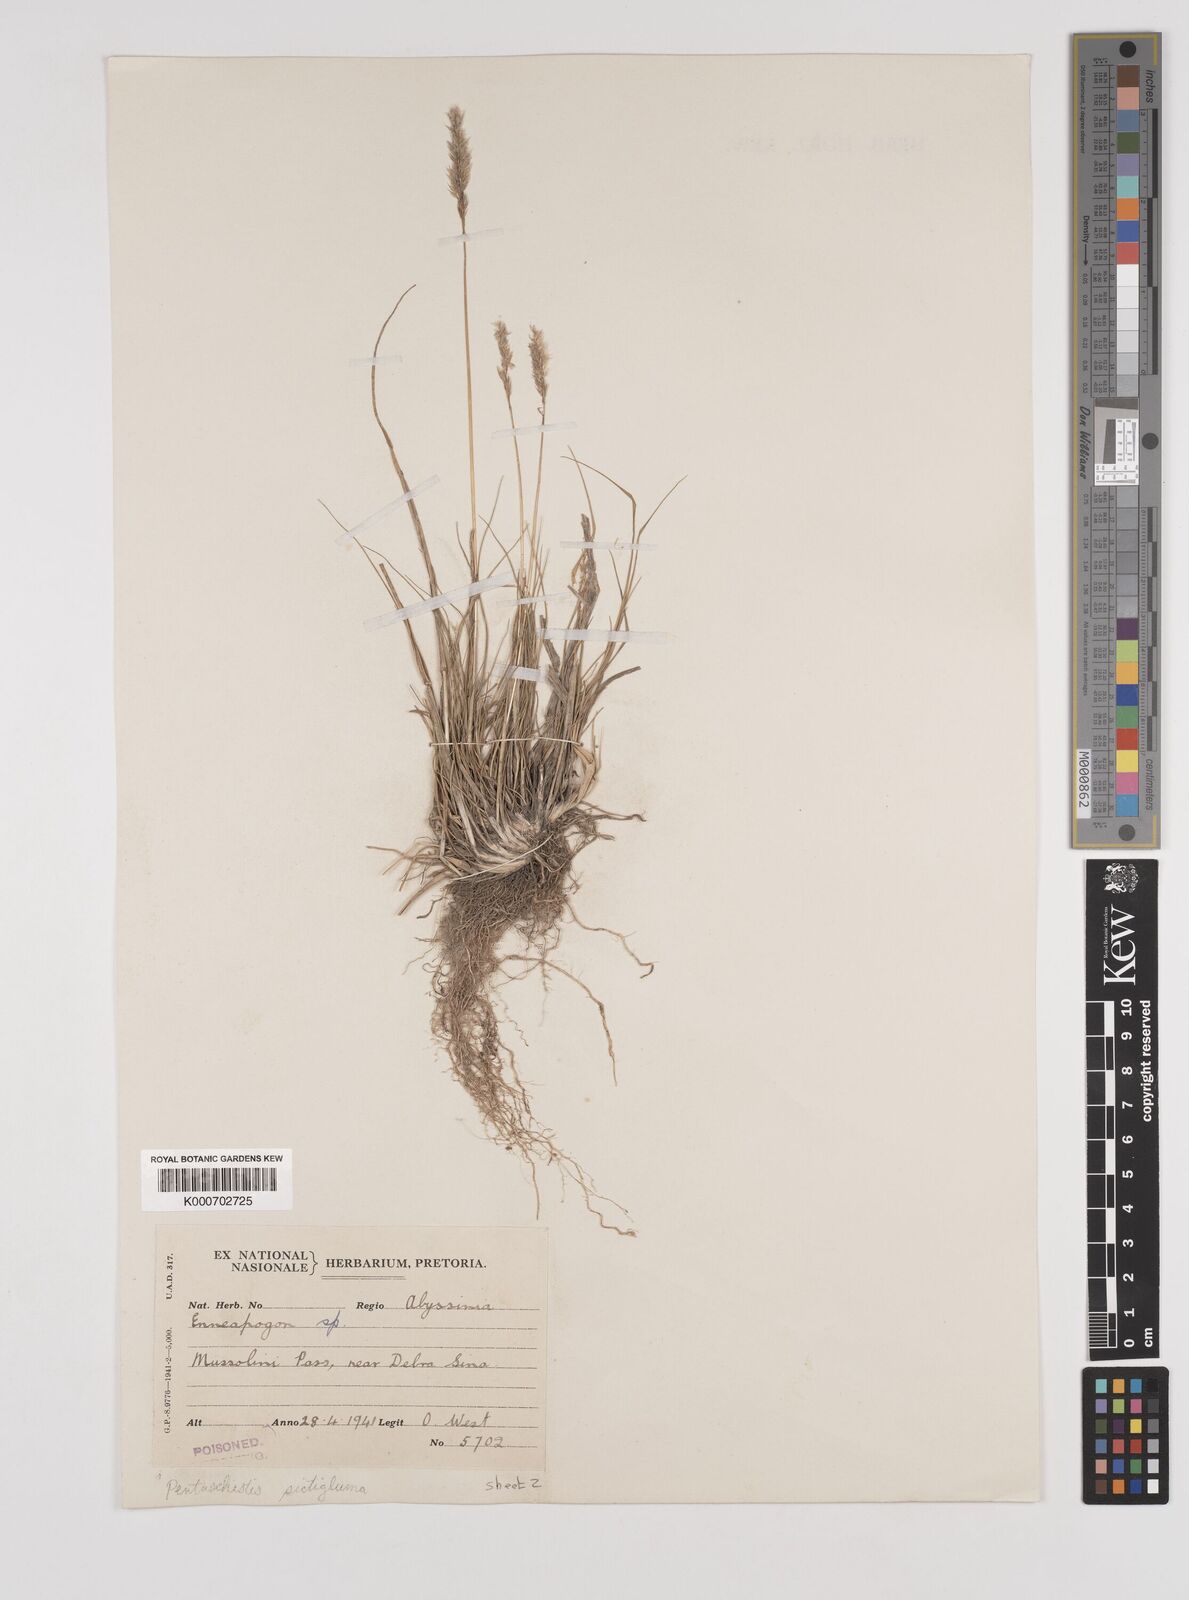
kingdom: Plantae
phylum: Tracheophyta
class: Liliopsida
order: Poales
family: Poaceae
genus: Pentameris
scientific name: Pentameris pictigluma
